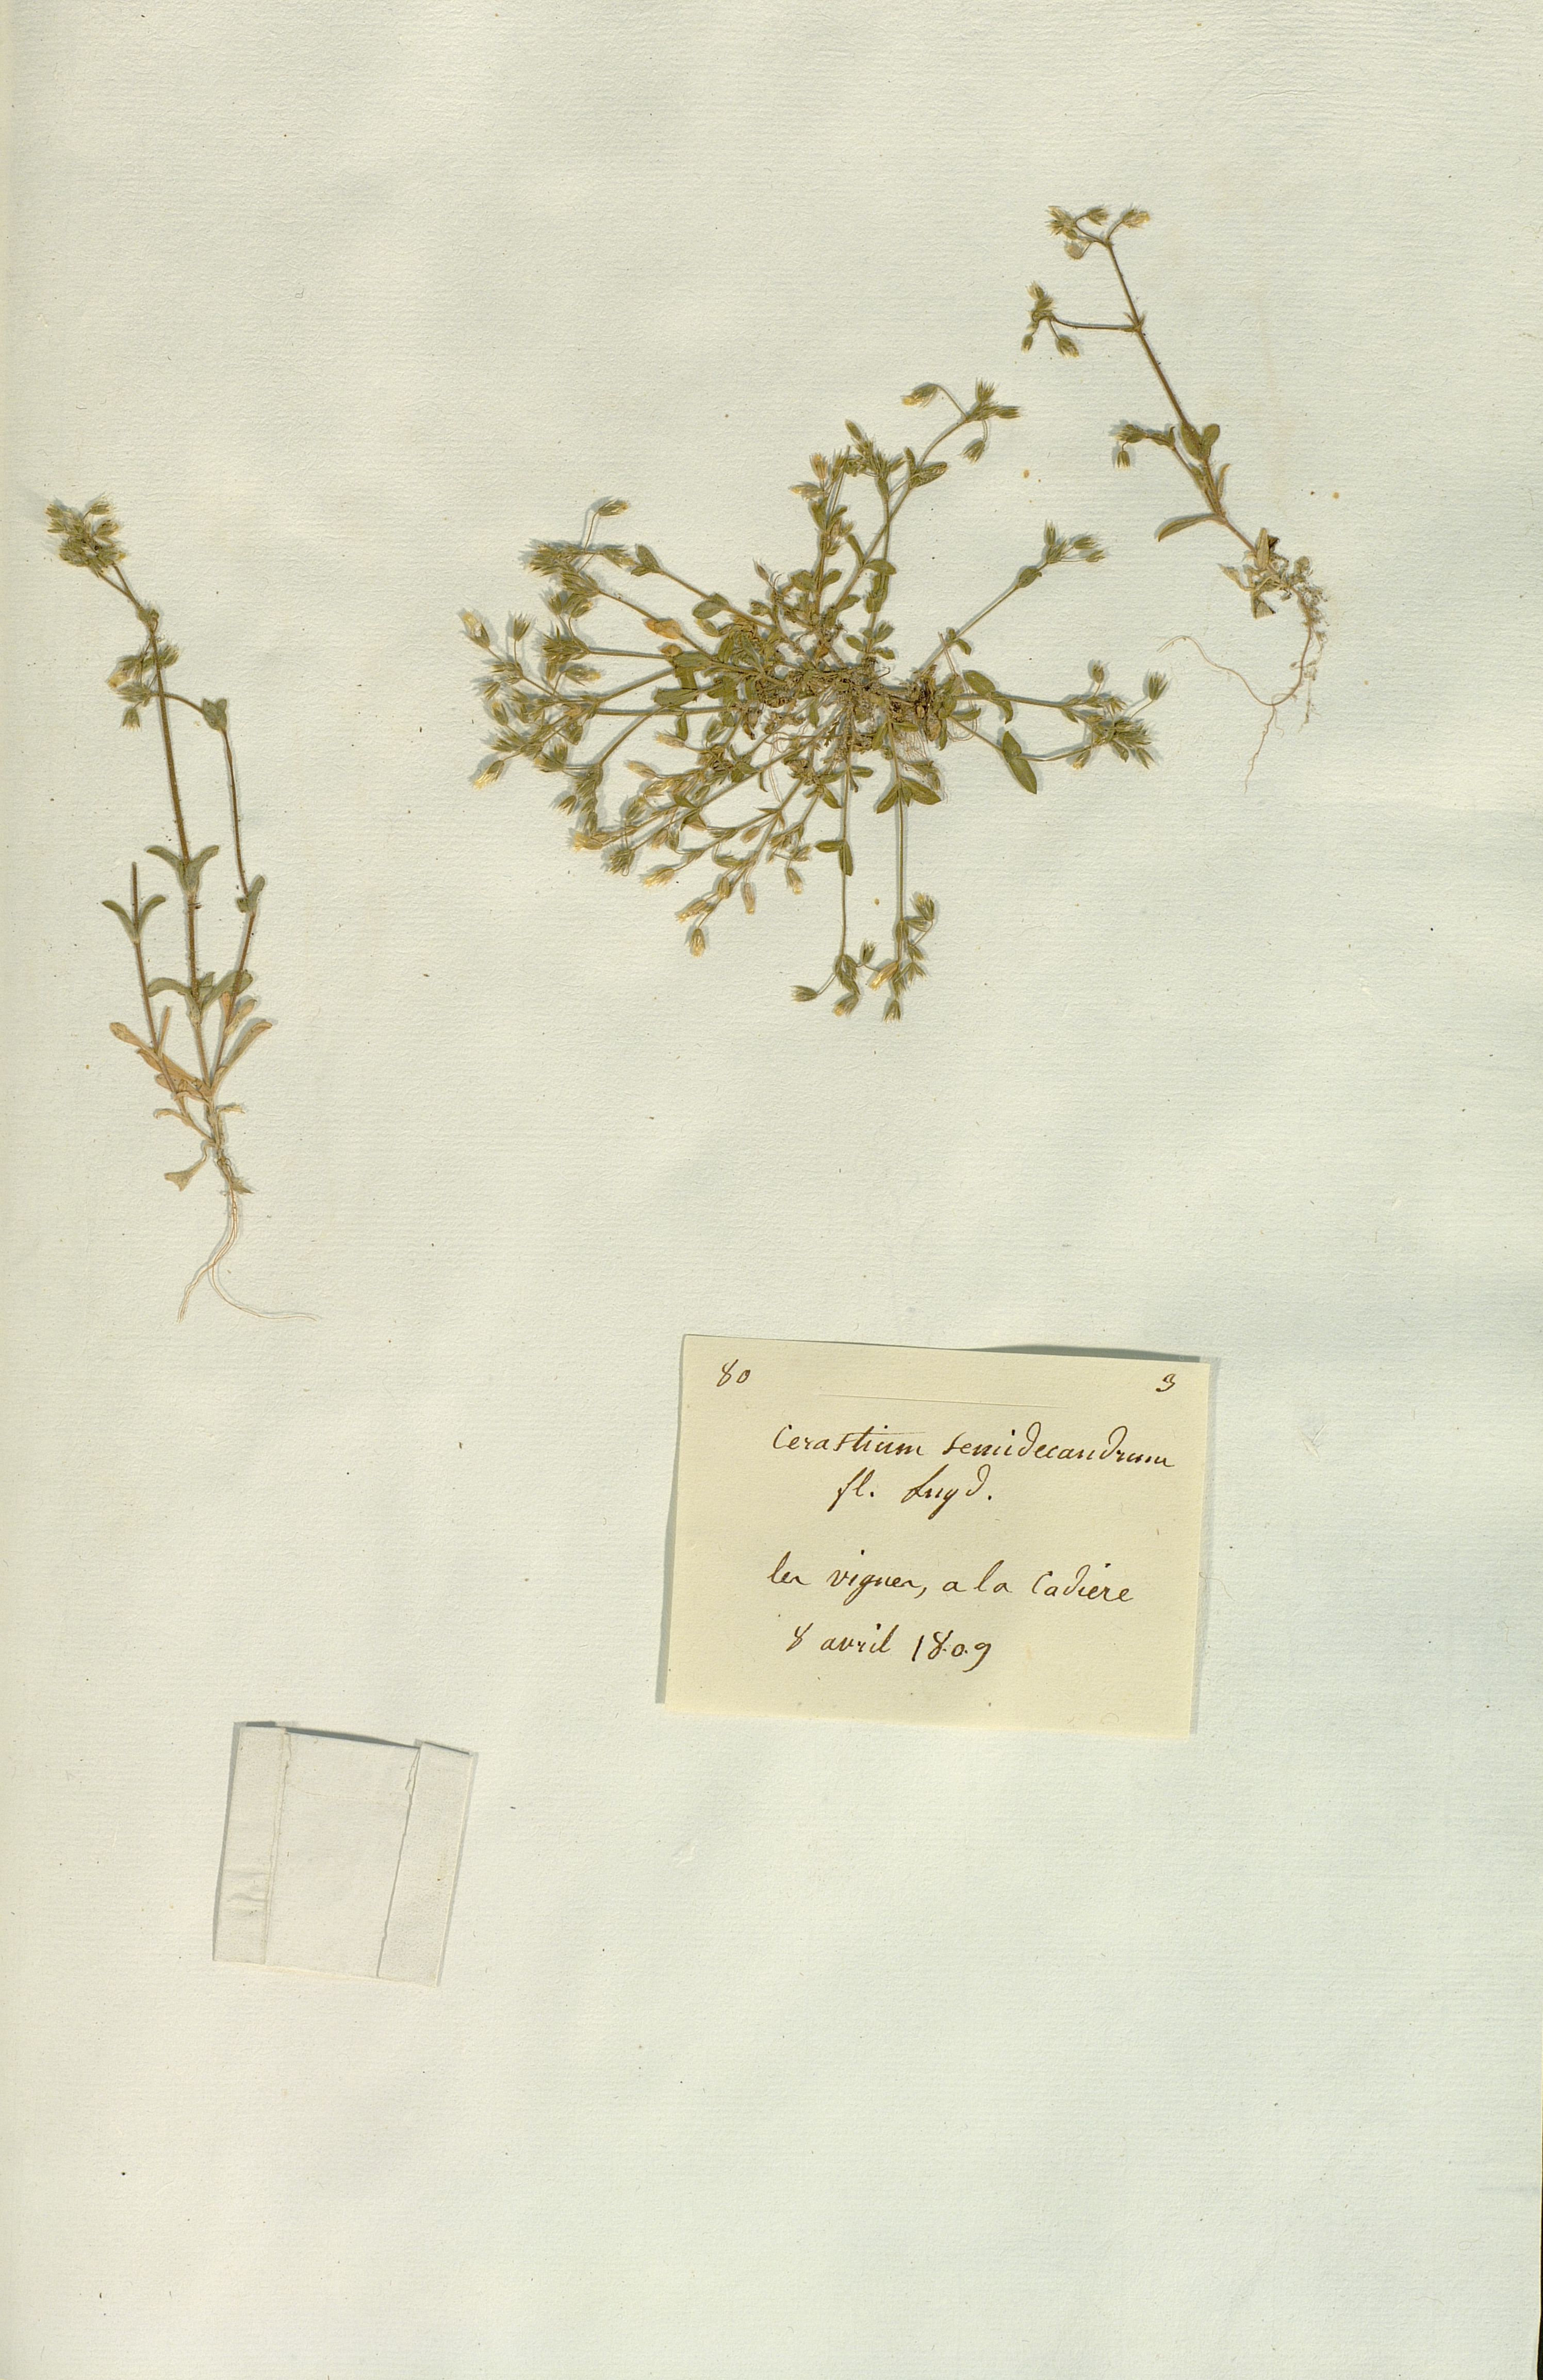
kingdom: Plantae
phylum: Tracheophyta
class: Magnoliopsida
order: Caryophyllales
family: Caryophyllaceae
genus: Cerastium
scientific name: Cerastium semidecandrum
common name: Little mouse-ear
